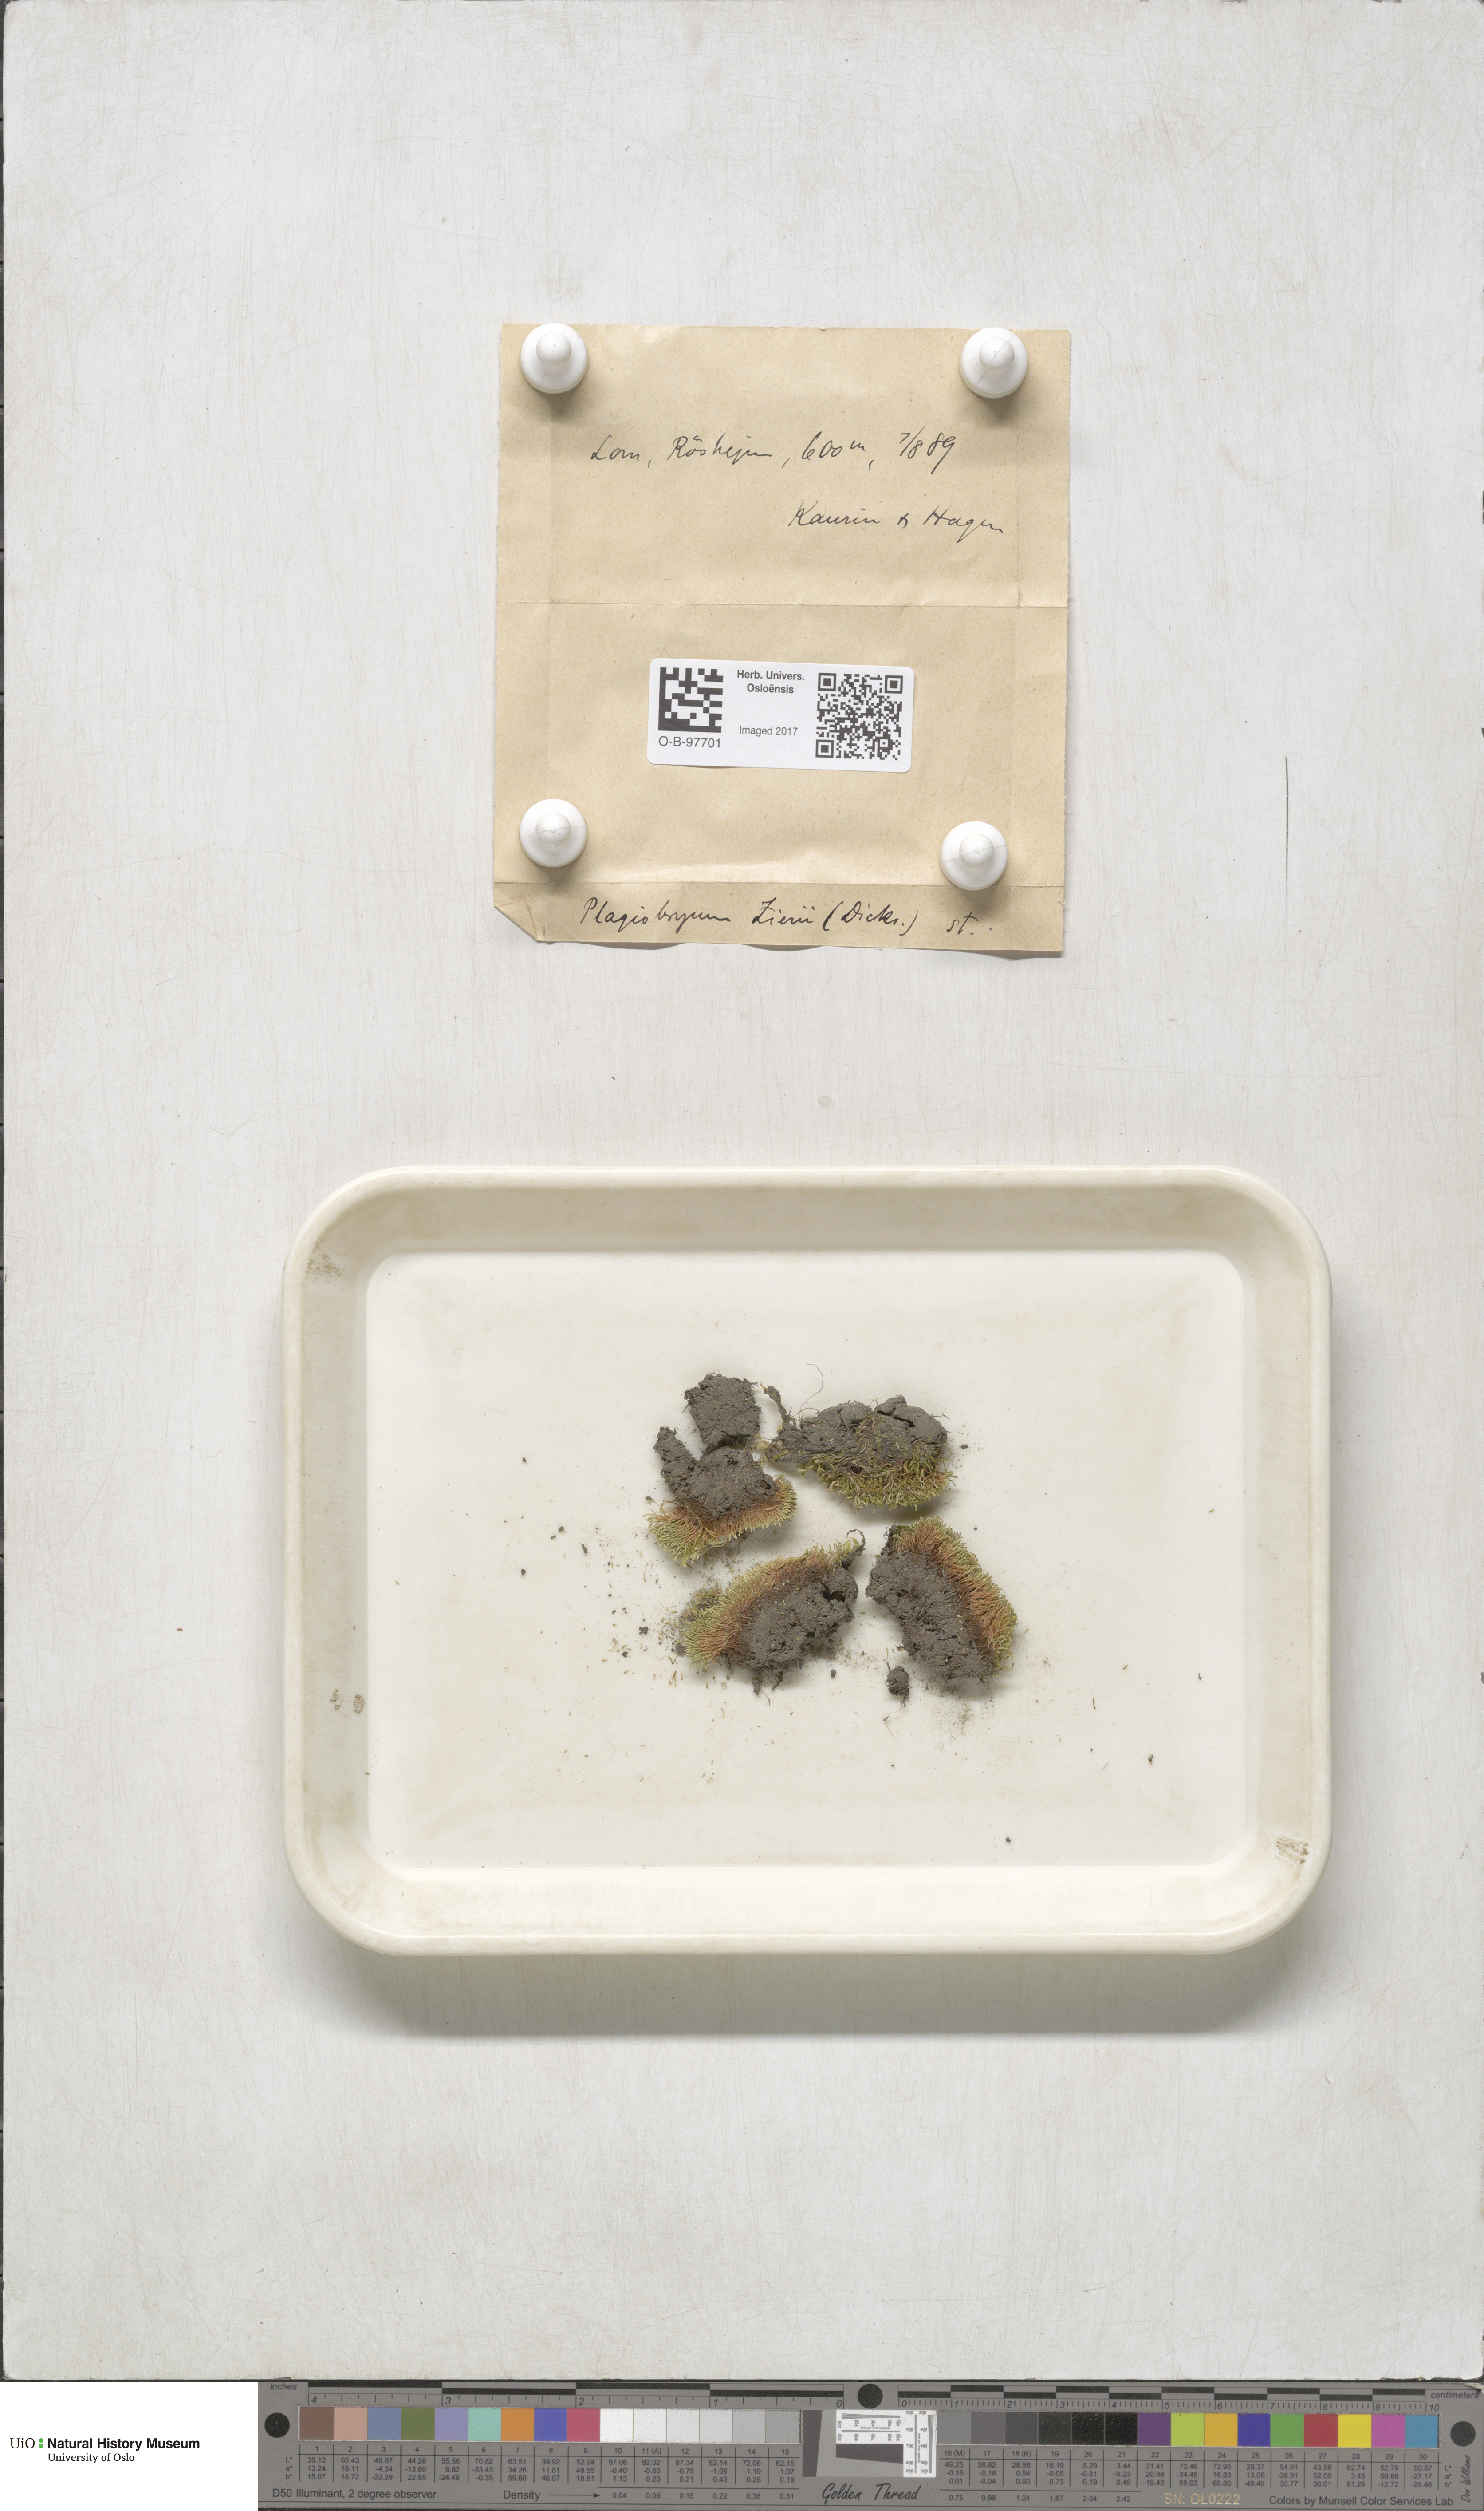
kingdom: Plantae
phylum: Bryophyta
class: Bryopsida
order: Bryales
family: Bryaceae
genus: Plagiobryum
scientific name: Plagiobryum zieri
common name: Zier's hump moss
